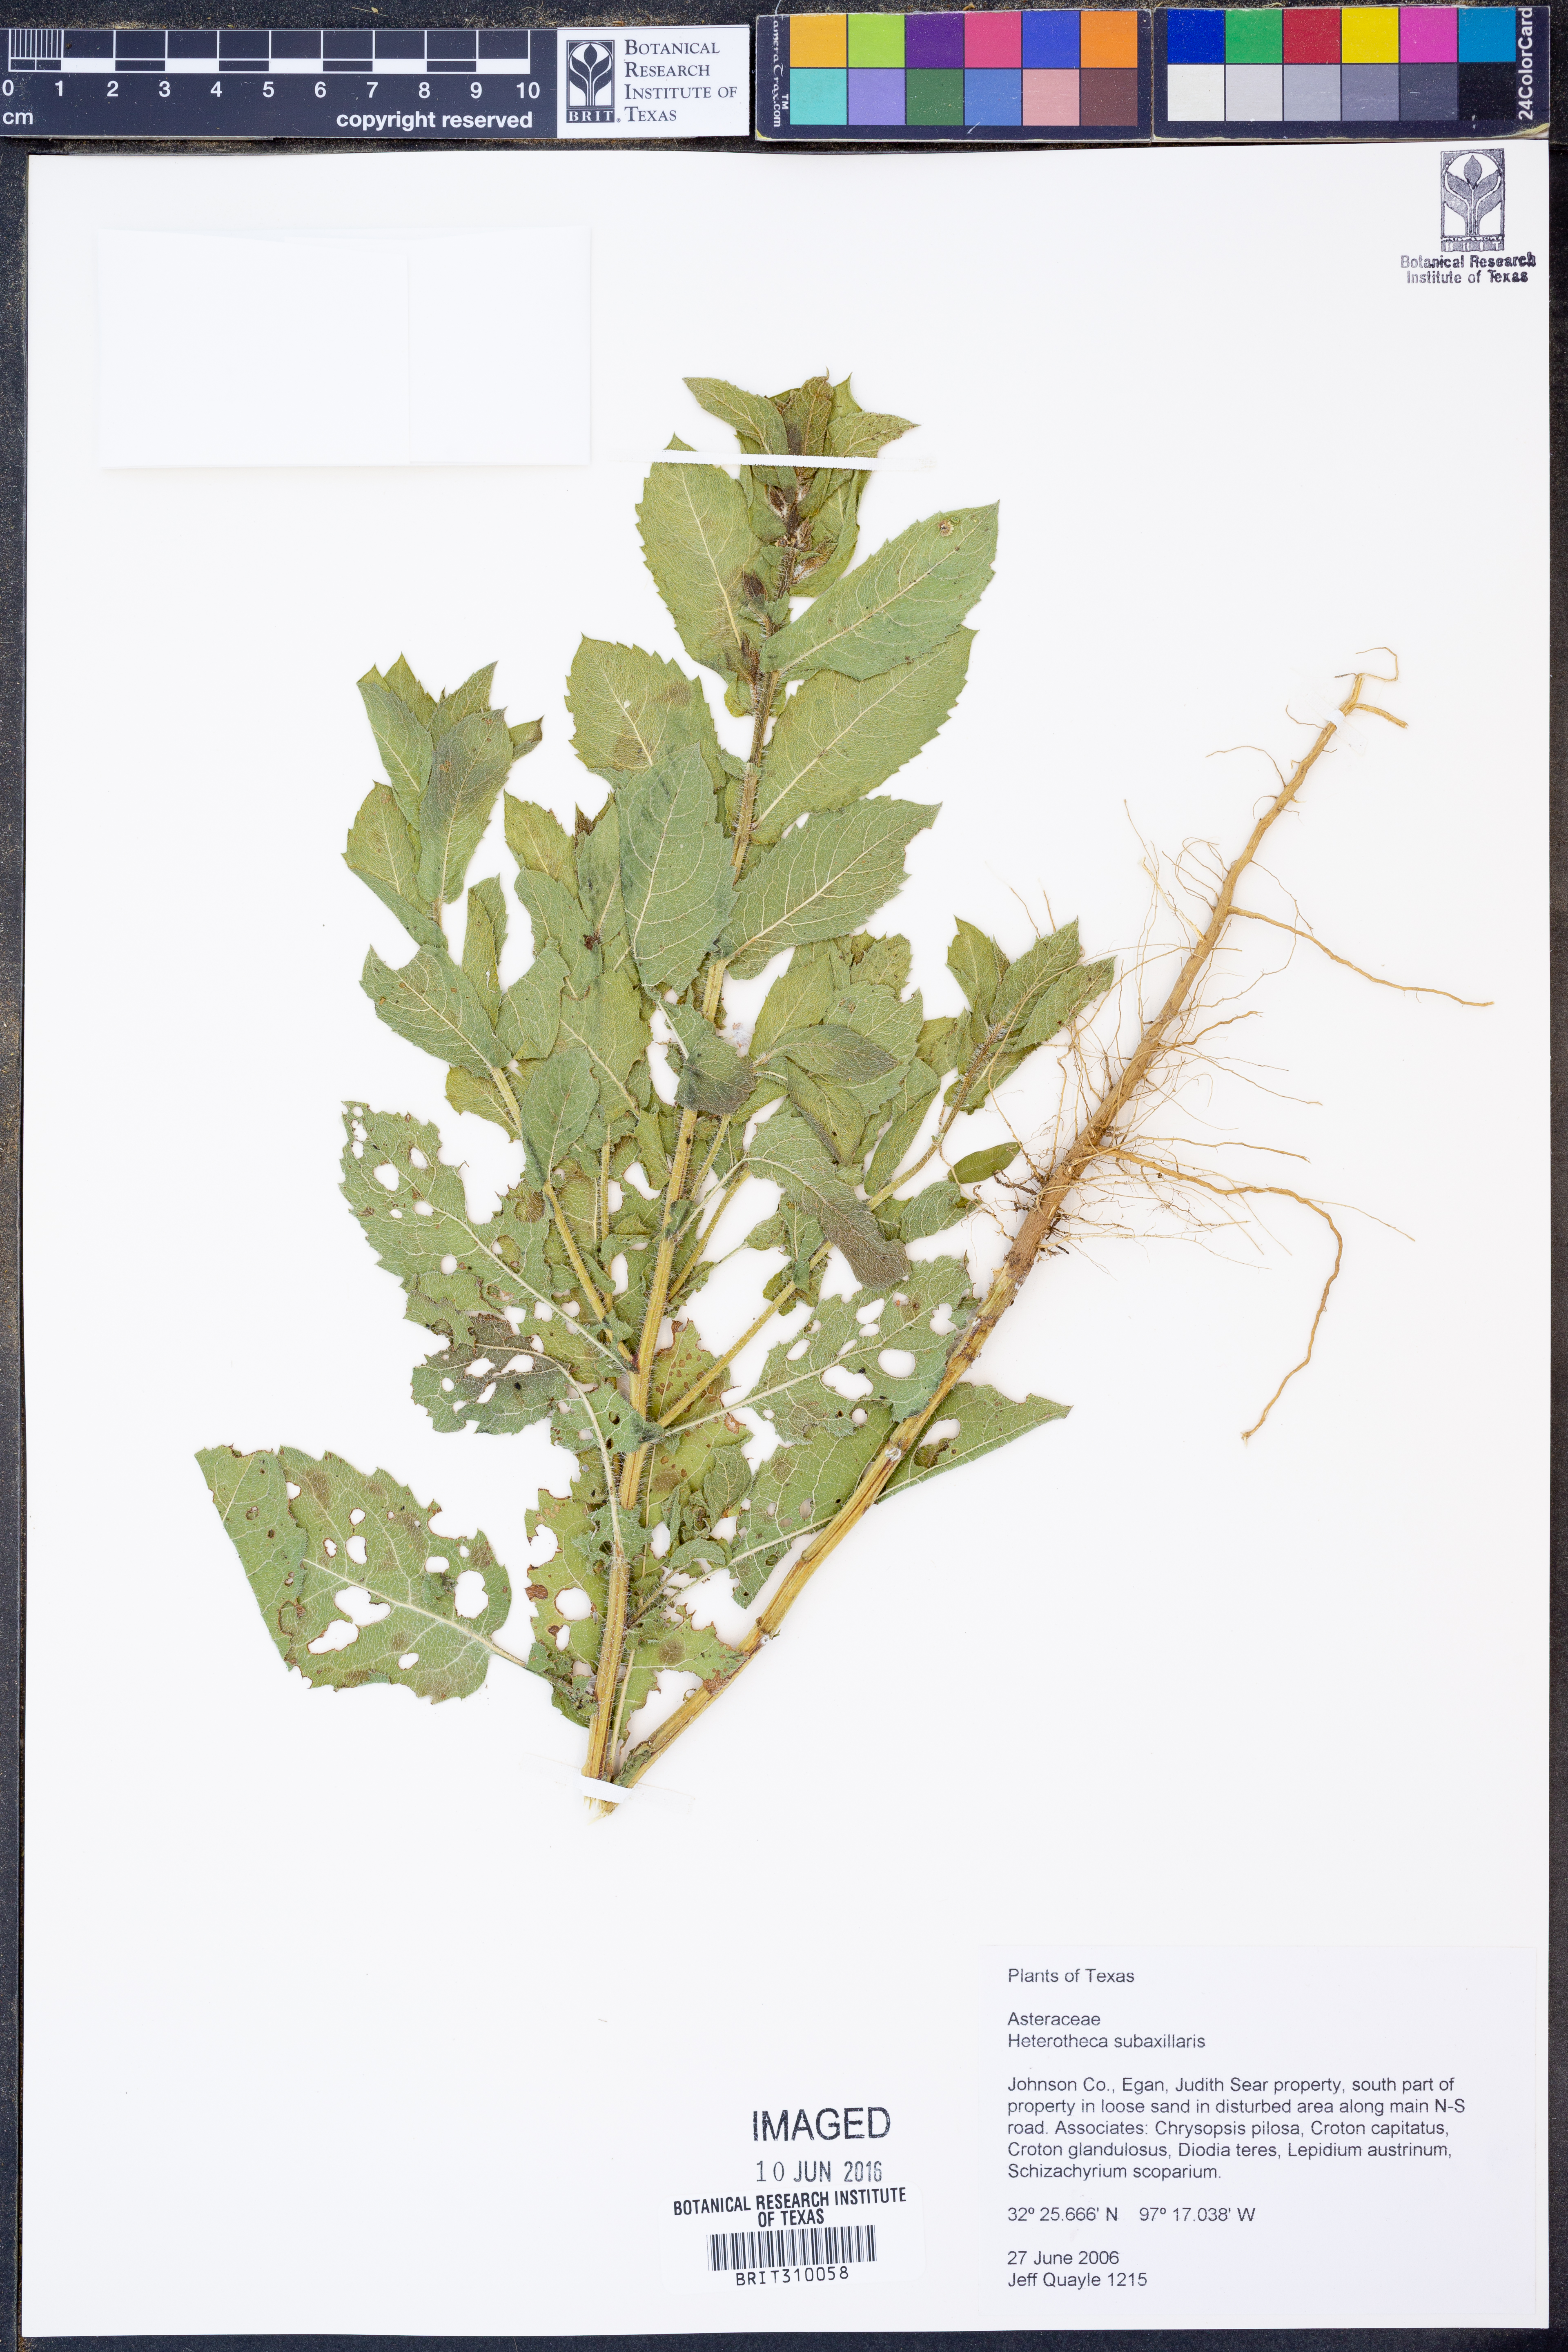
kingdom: Plantae
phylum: Tracheophyta
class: Magnoliopsida
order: Asterales
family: Asteraceae
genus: Heterotheca
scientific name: Heterotheca subaxillaris
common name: Camphorweed
